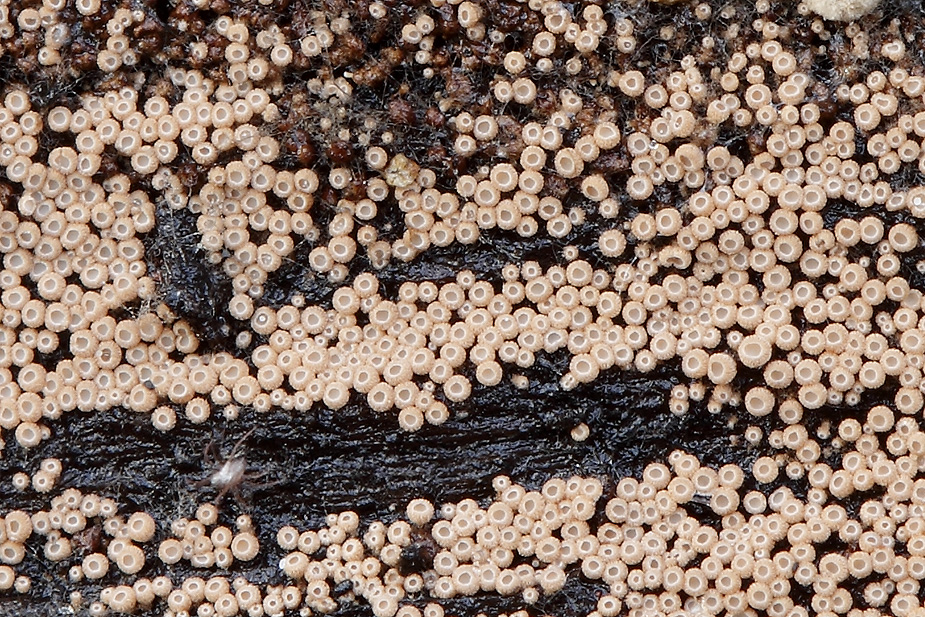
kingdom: Fungi
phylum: Basidiomycota
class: Agaricomycetes
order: Agaricales
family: Niaceae
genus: Merismodes
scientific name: Merismodes anomala
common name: almindelig læderskål
